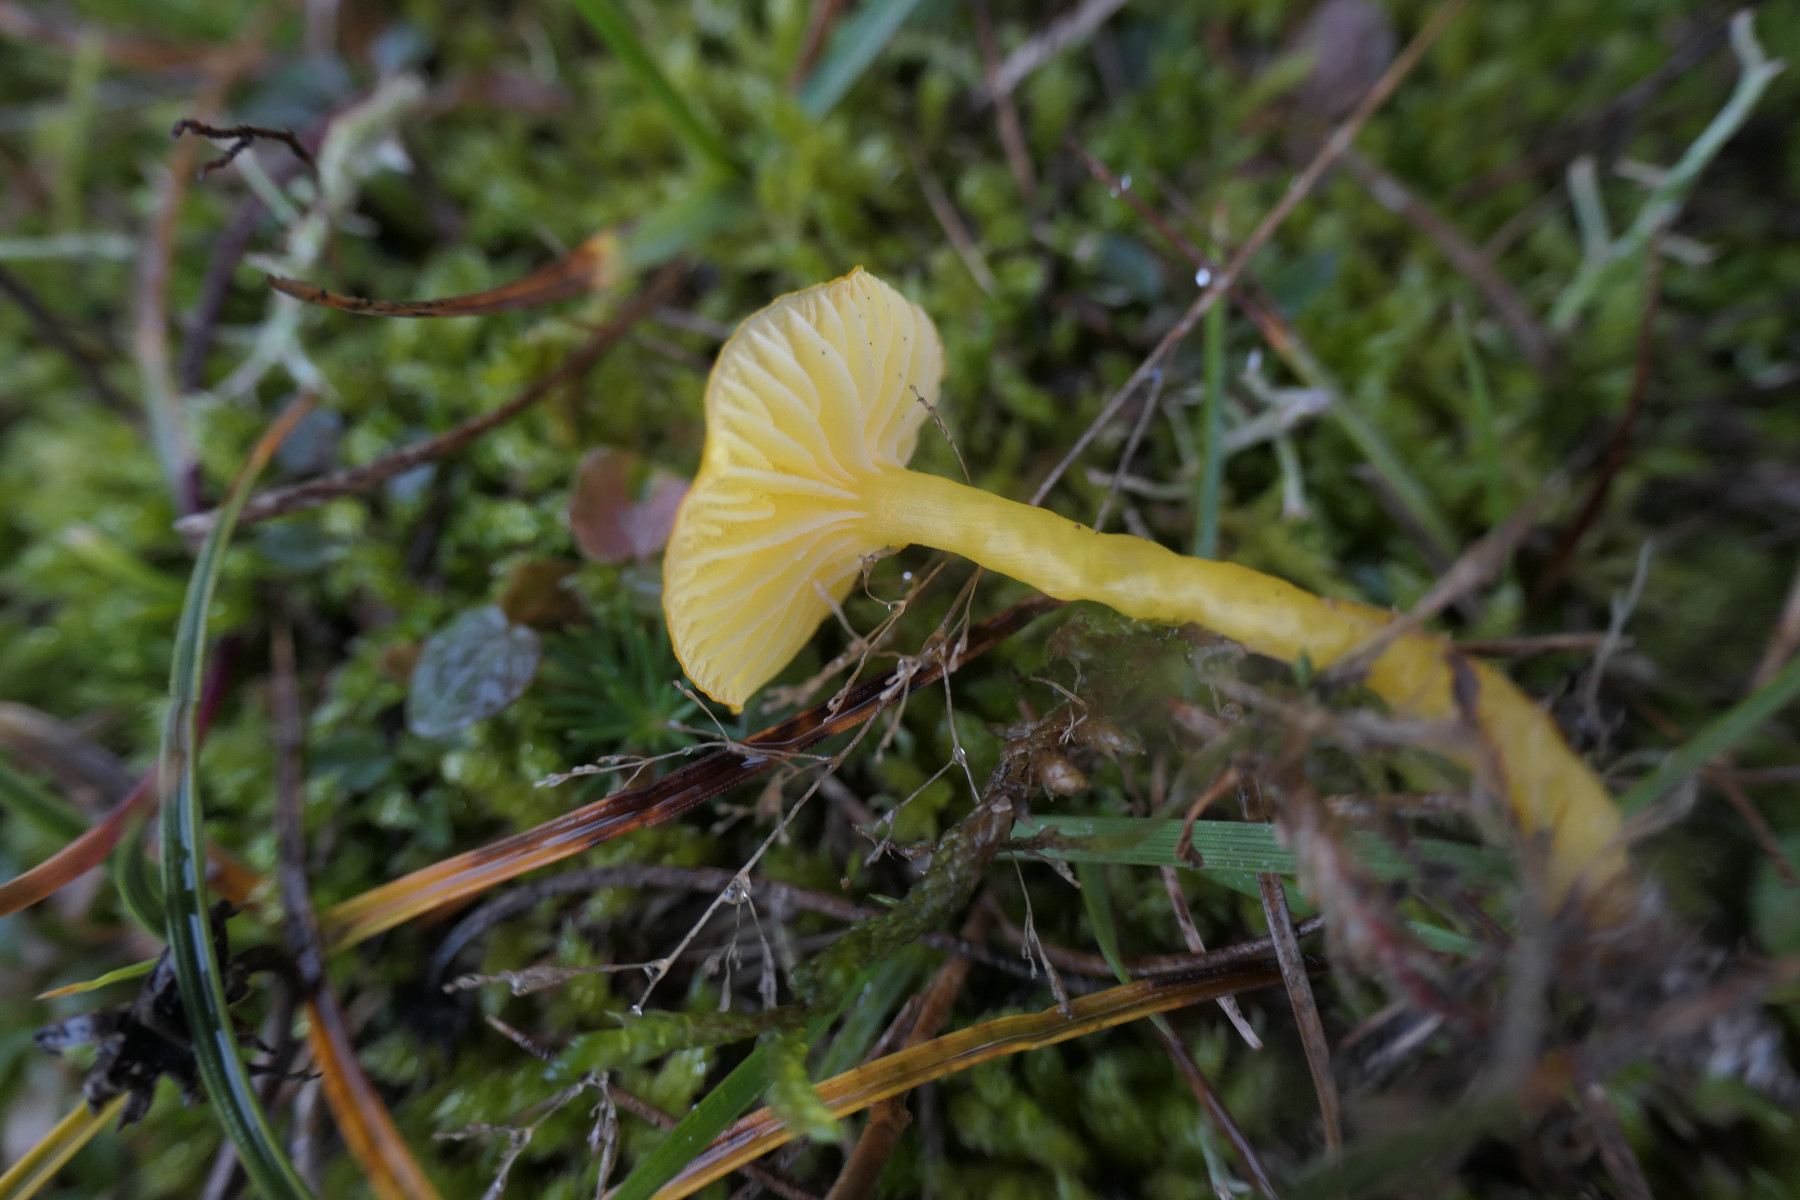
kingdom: Fungi
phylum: Basidiomycota
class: Agaricomycetes
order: Agaricales
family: Hygrophoraceae
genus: Hygrocybe
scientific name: Hygrocybe ceracea
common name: voksgul vokshat
